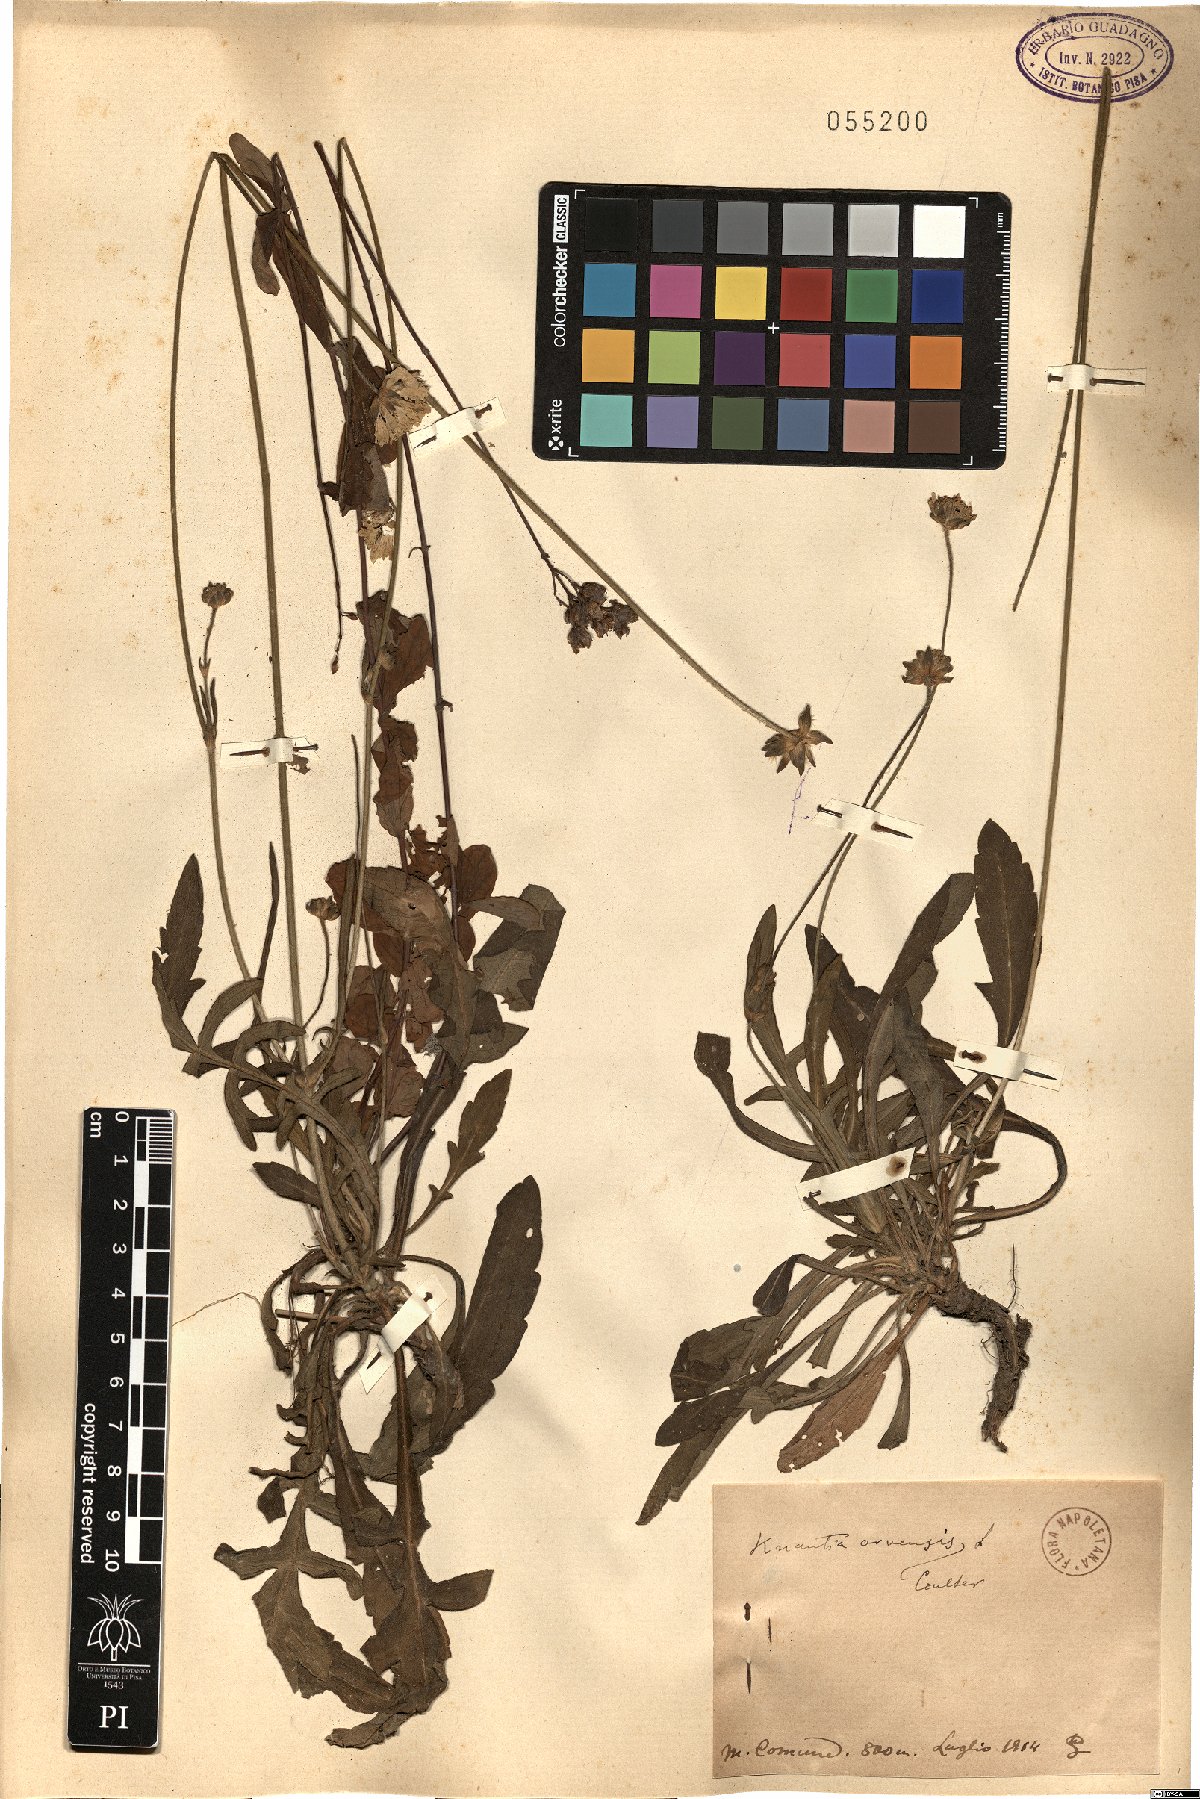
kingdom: Plantae
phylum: Tracheophyta
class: Magnoliopsida
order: Dipsacales
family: Caprifoliaceae
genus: Knautia
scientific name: Knautia arvensis
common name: Field scabiosa
